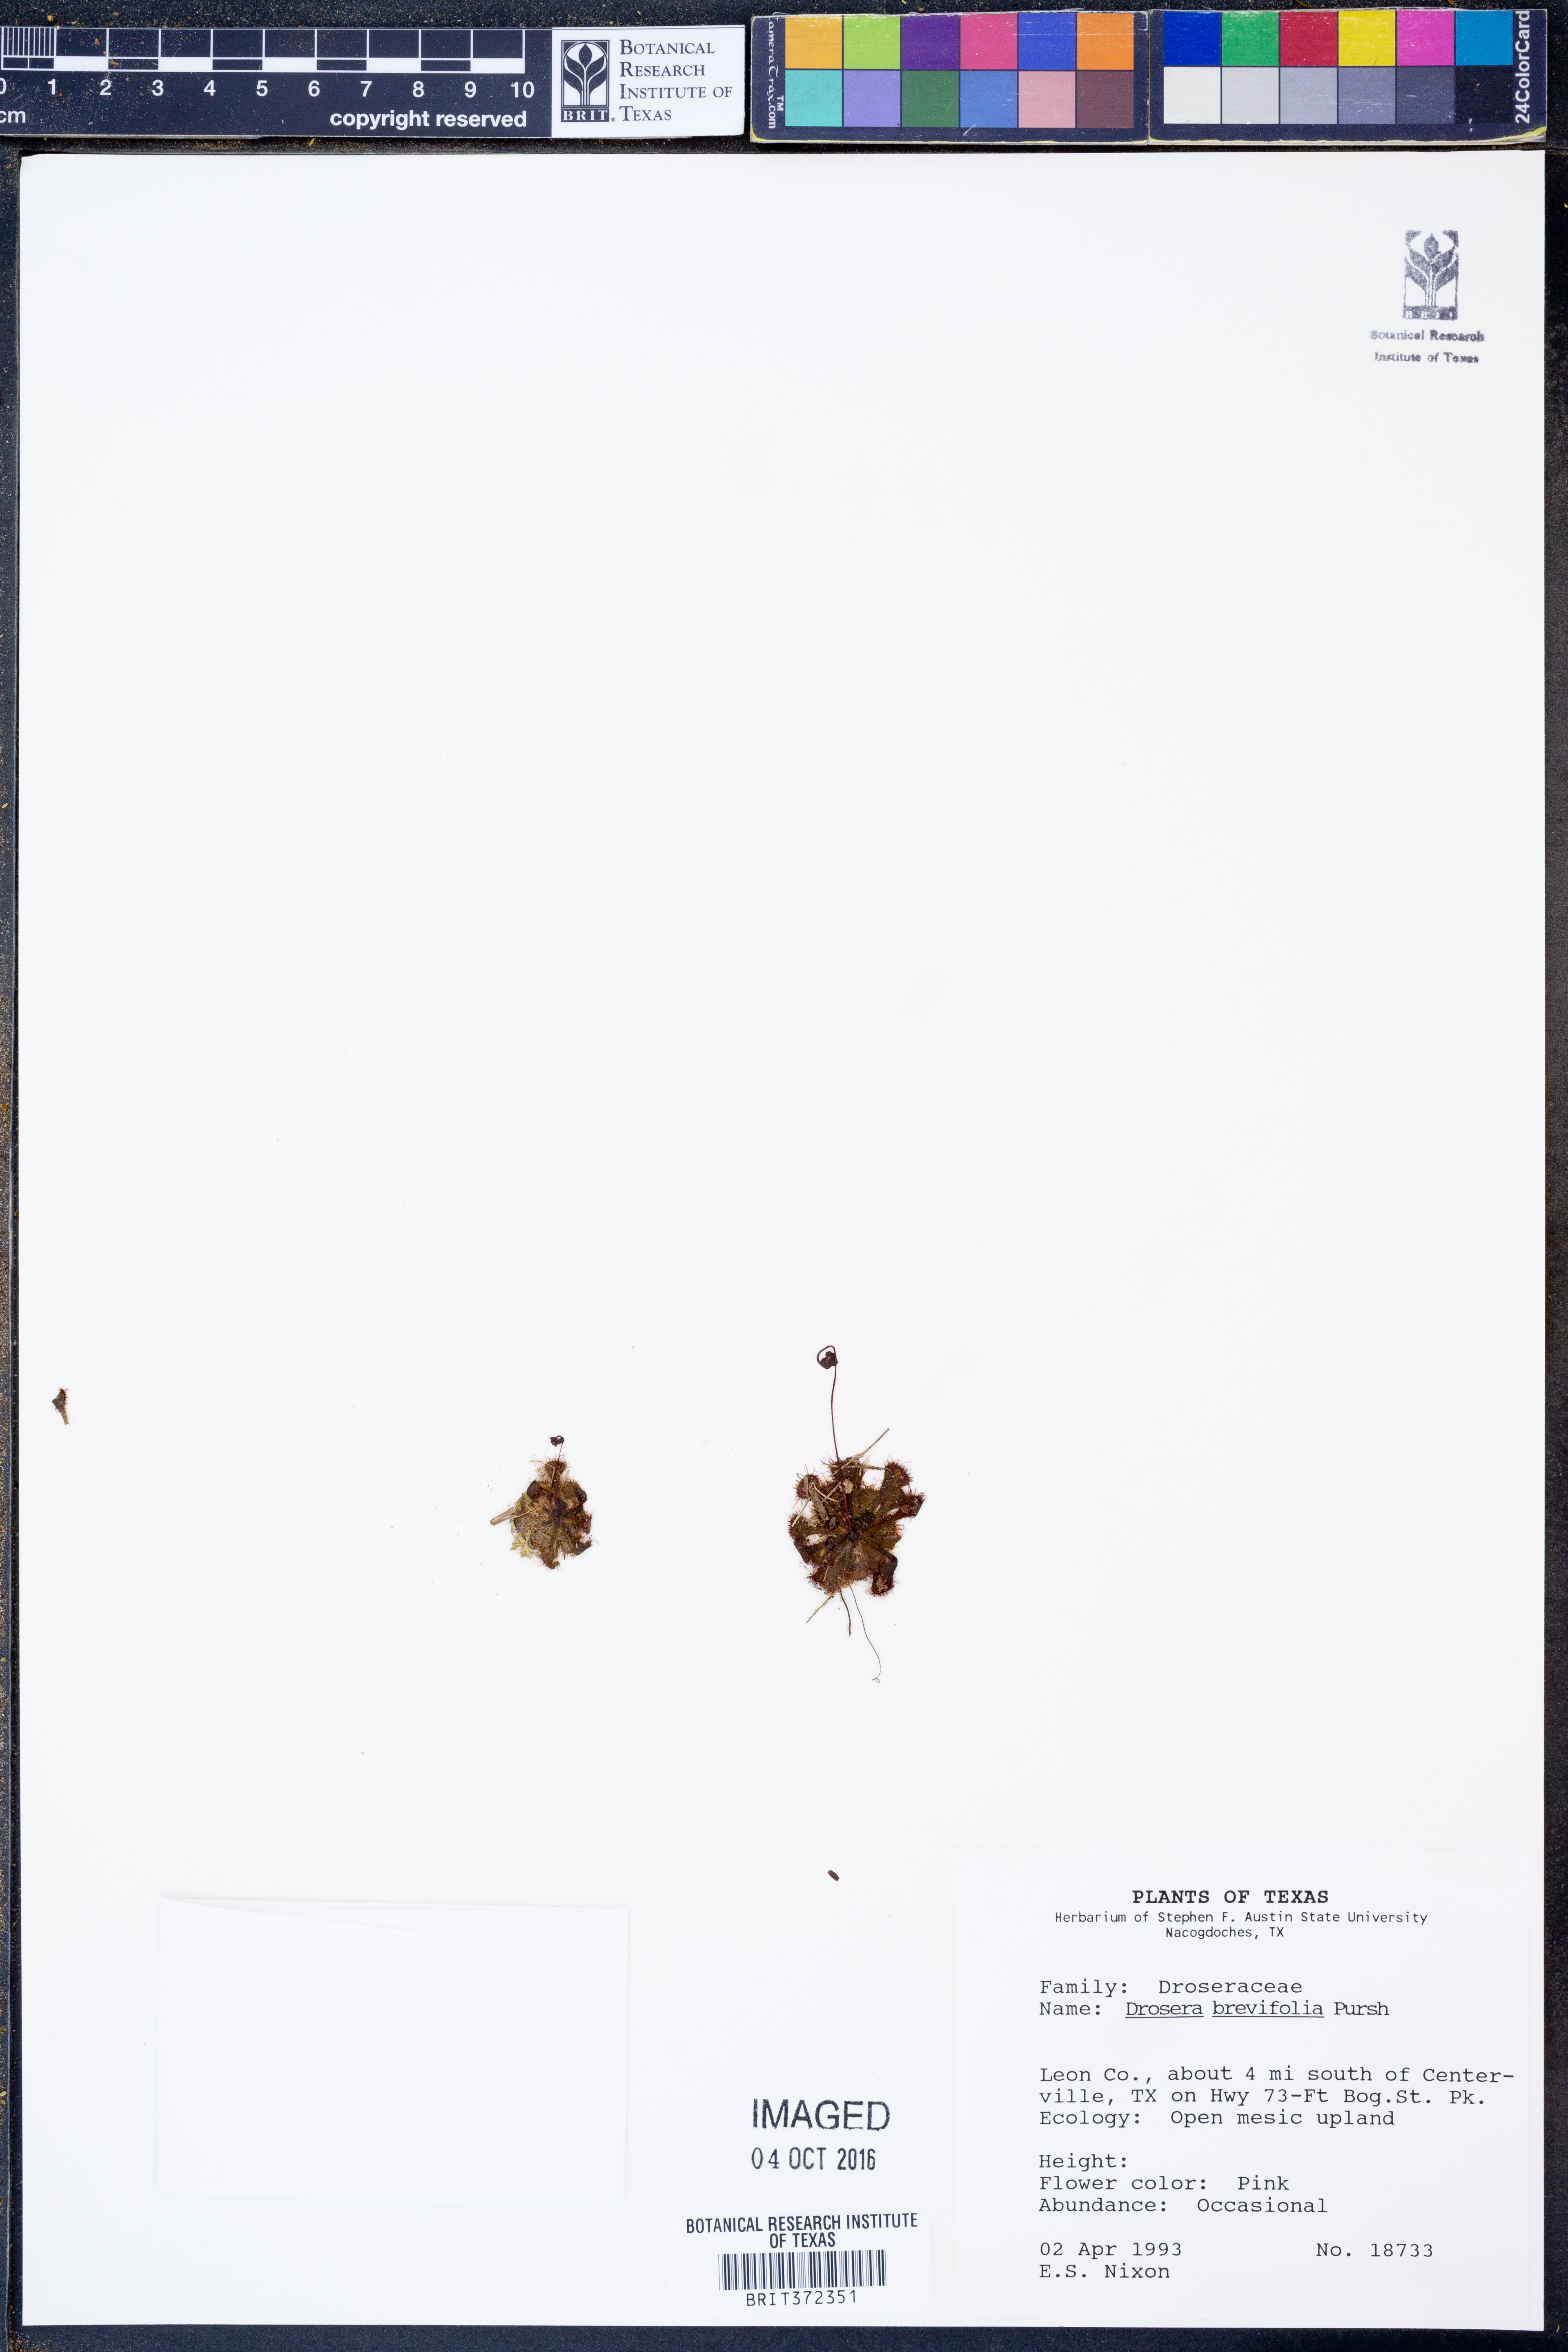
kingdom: Plantae
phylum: Tracheophyta
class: Magnoliopsida
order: Caryophyllales
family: Droseraceae
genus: Drosera
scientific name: Drosera brevifolia
